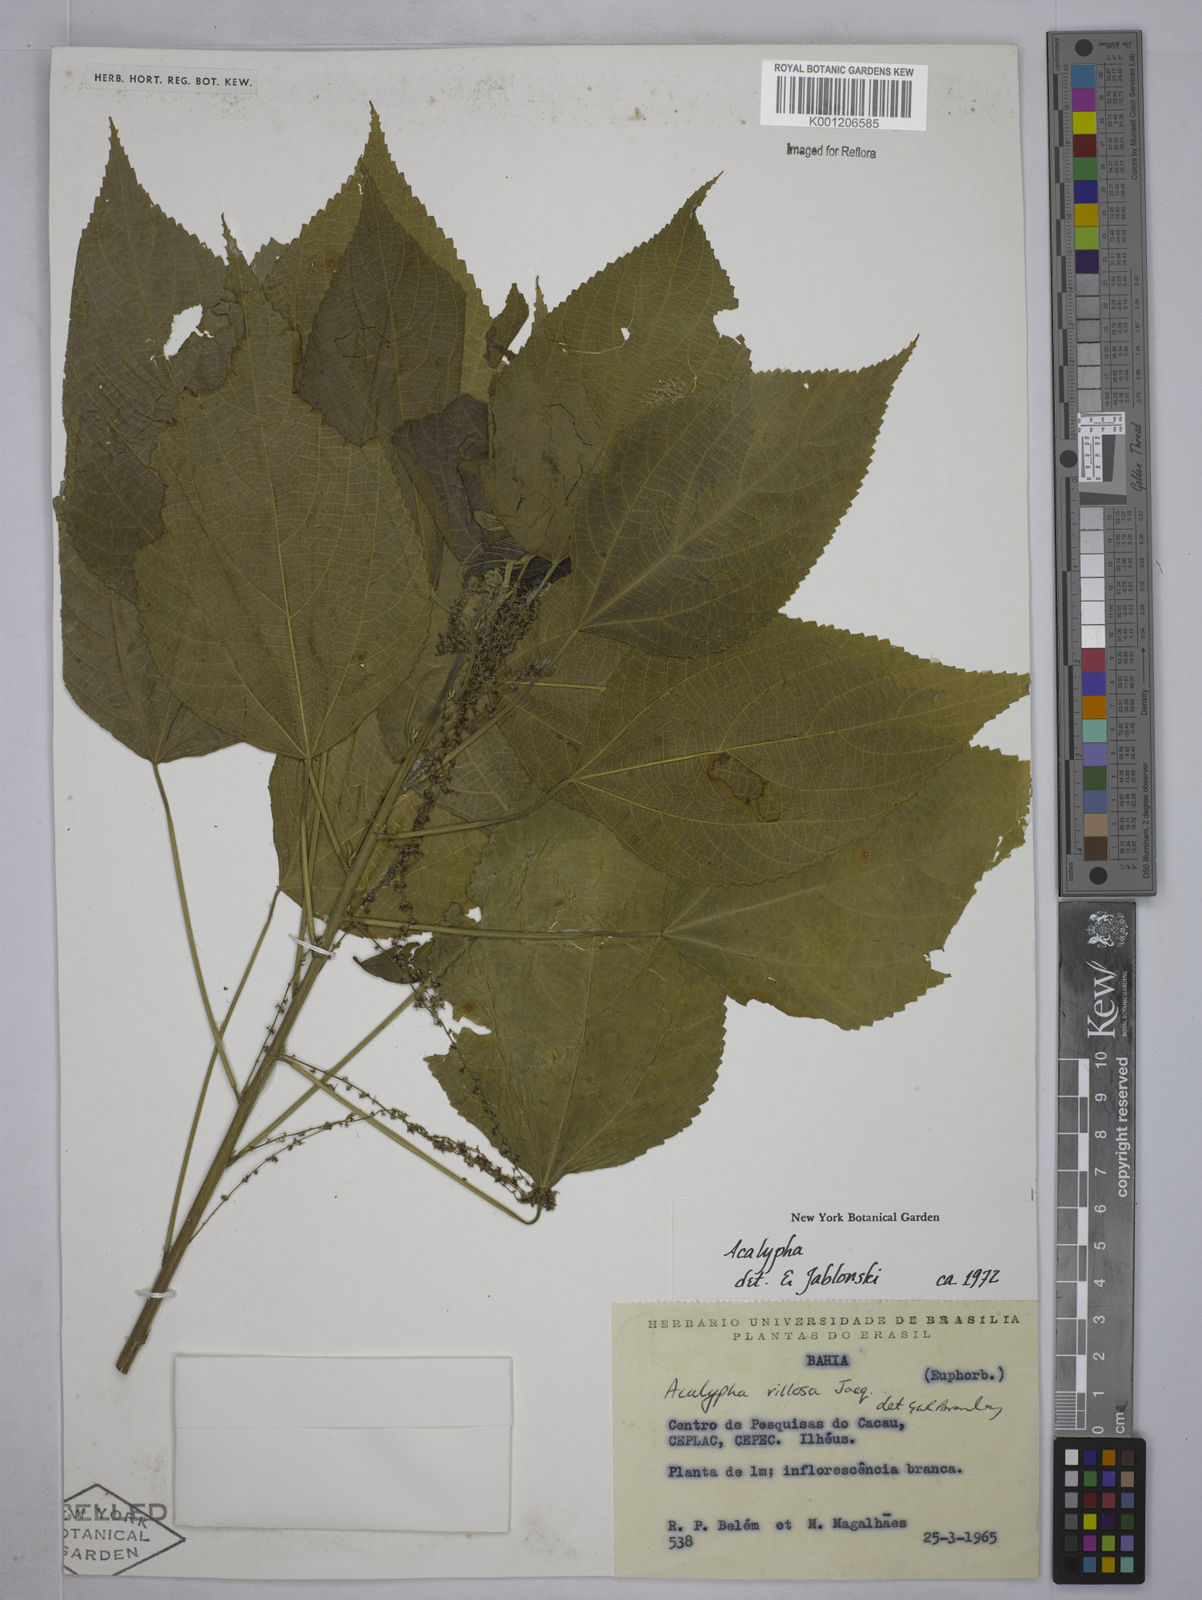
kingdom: Plantae
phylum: Tracheophyta
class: Magnoliopsida
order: Malpighiales
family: Euphorbiaceae
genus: Acalypha
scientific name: Acalypha villosa
